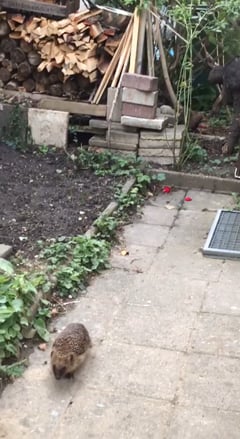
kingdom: Animalia
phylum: Chordata
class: Mammalia
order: Erinaceomorpha
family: Erinaceidae
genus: Erinaceus
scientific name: Erinaceus europaeus
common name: West european hedgehog
